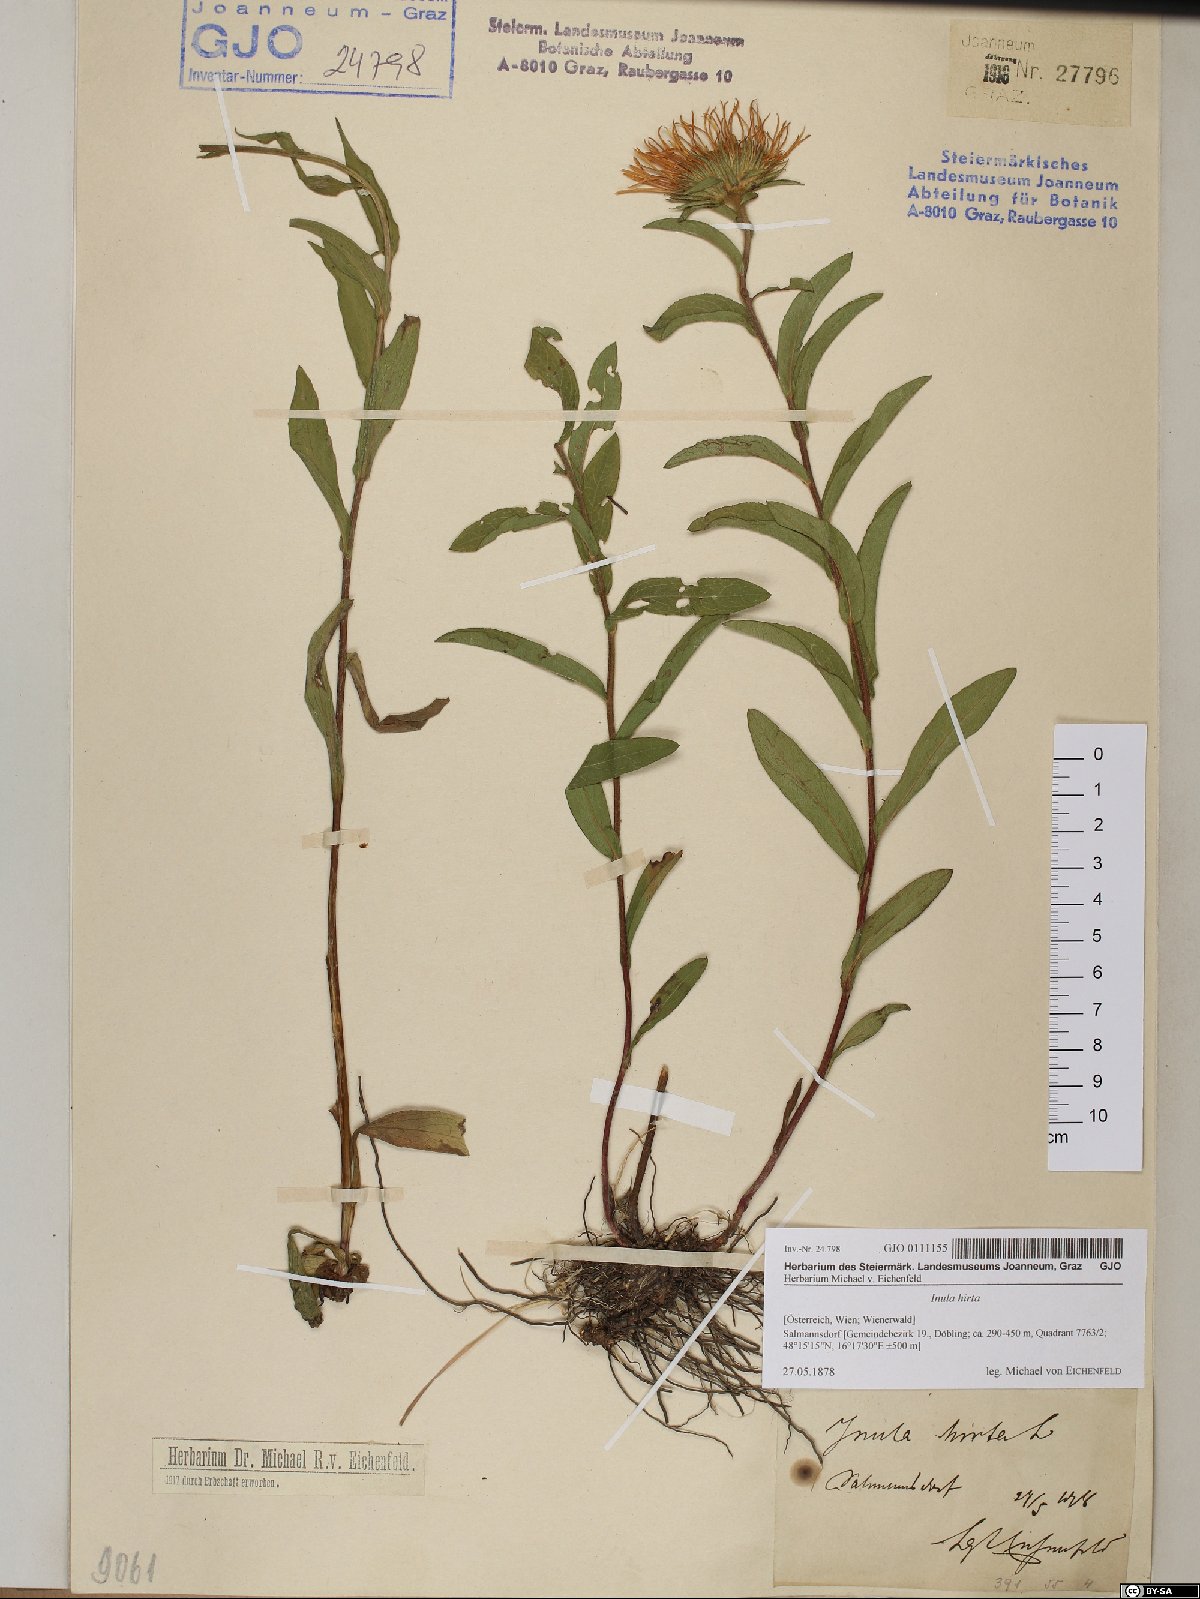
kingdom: Plantae
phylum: Tracheophyta
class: Magnoliopsida
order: Asterales
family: Asteraceae
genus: Pentanema
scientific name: Pentanema hirtum
